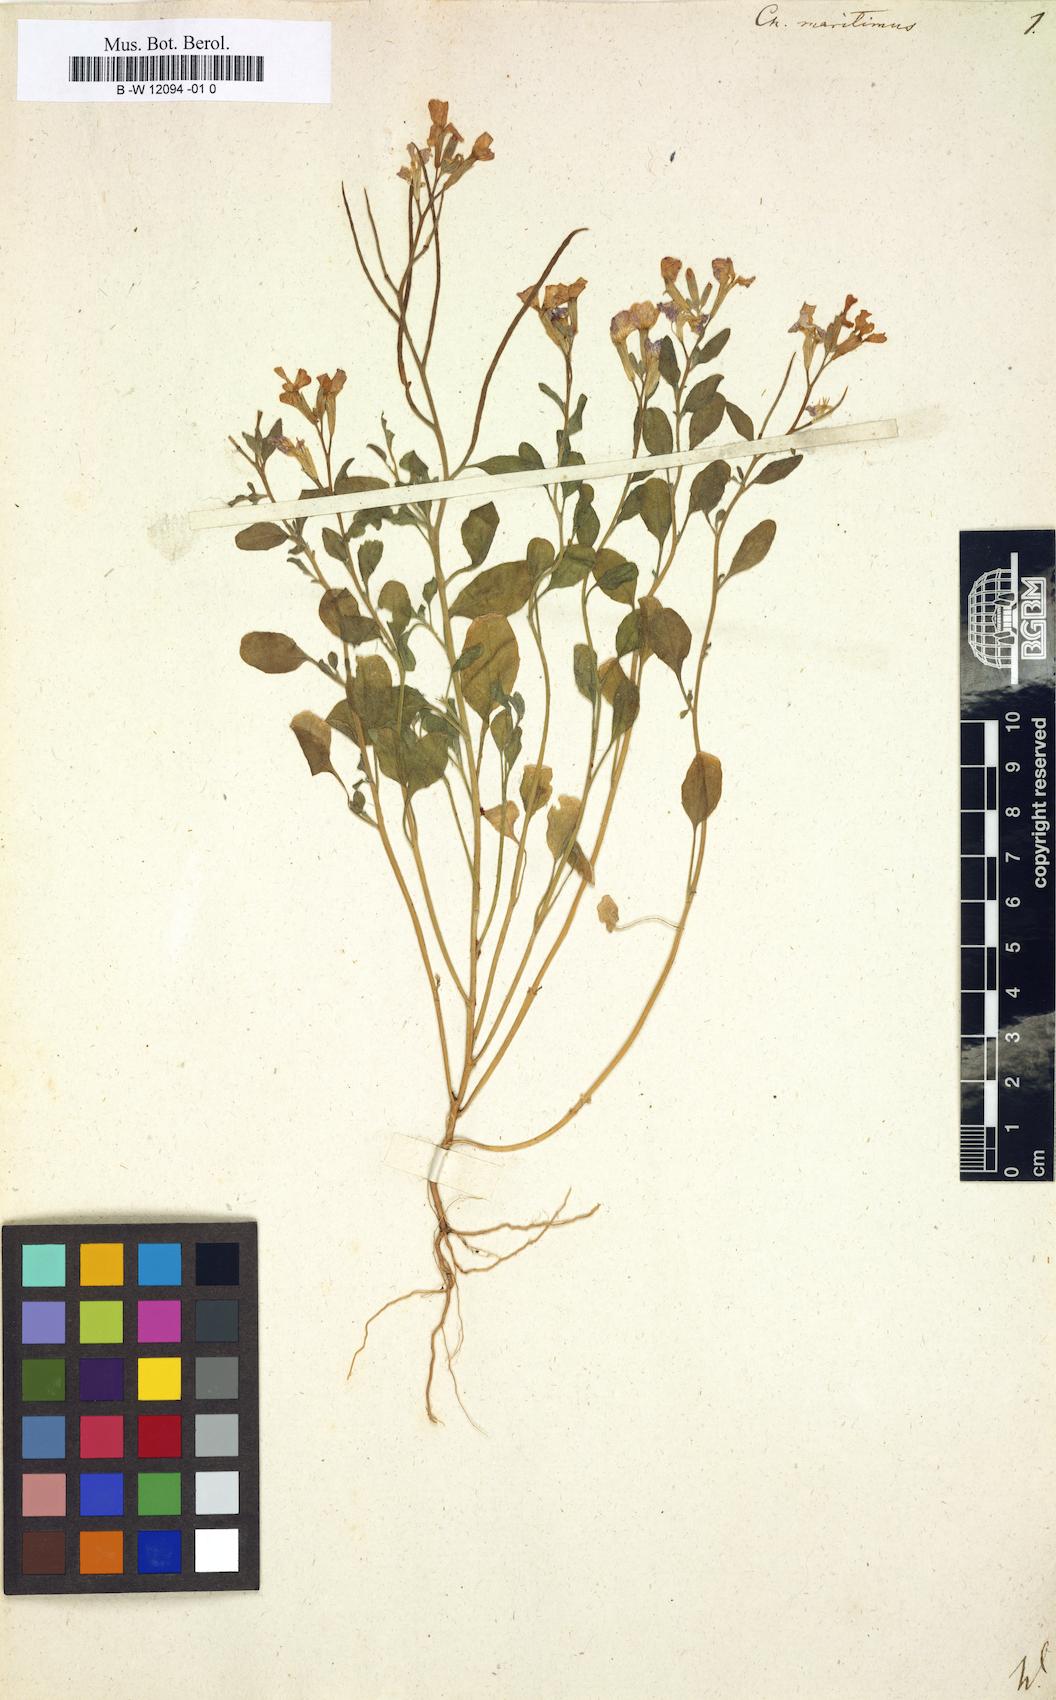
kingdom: Plantae
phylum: Tracheophyta
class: Magnoliopsida
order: Brassicales
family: Brassicaceae
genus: Malcolmia
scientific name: Malcolmia maritima
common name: Virginia stock
